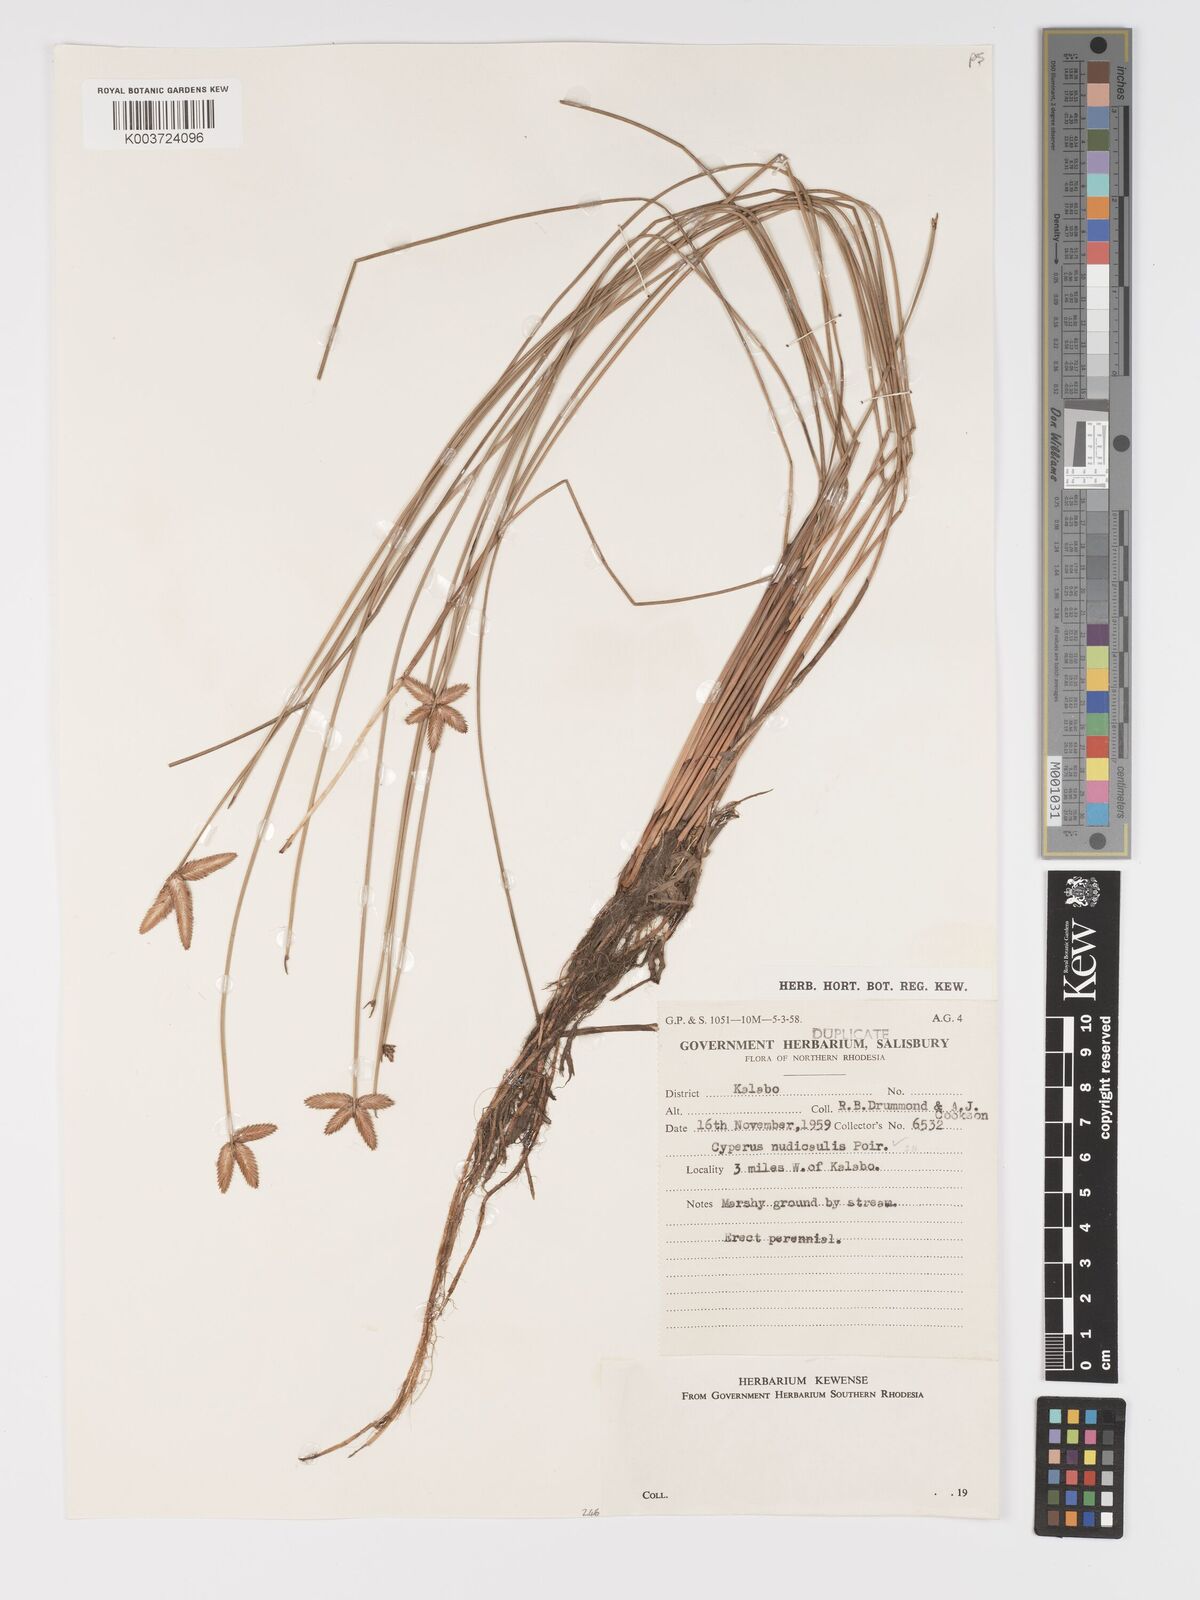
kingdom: Plantae
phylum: Tracheophyta
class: Liliopsida
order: Poales
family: Cyperaceae
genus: Cyperus
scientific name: Cyperus compressus
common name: Poorland flatsedge
